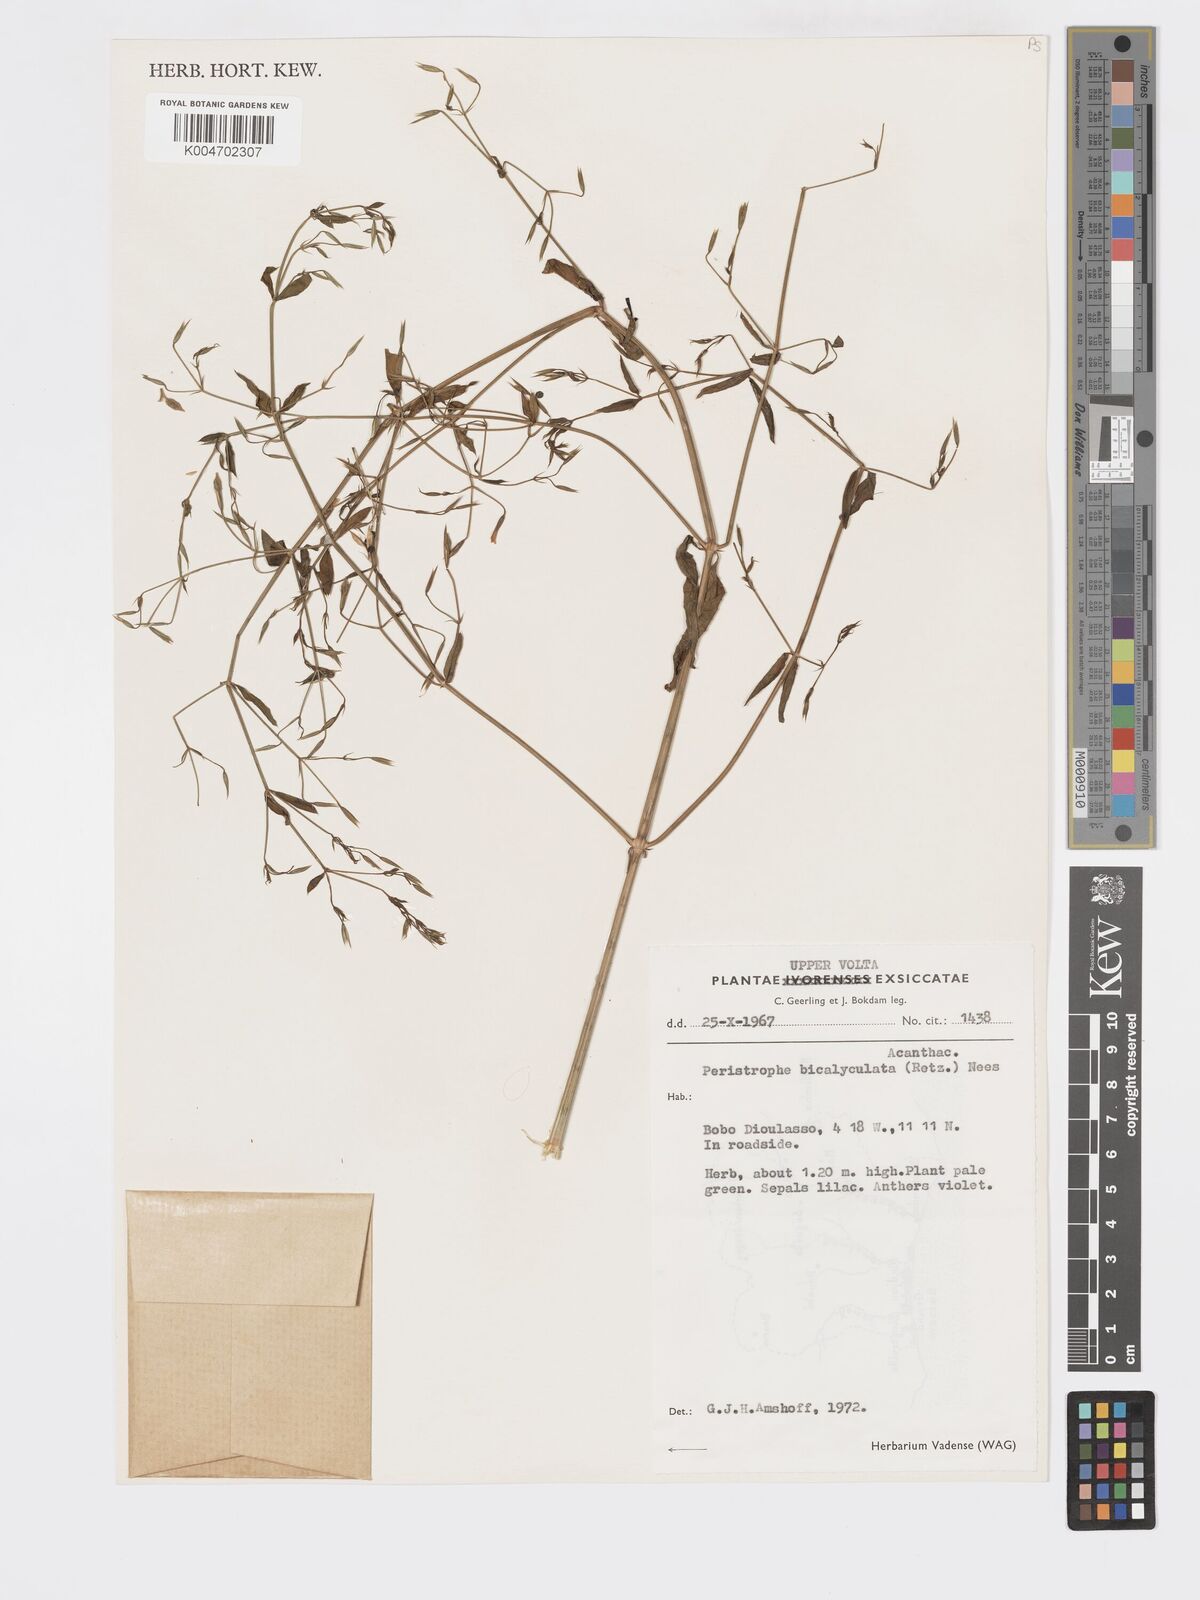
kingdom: Plantae
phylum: Tracheophyta
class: Magnoliopsida
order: Lamiales
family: Acanthaceae
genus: Dicliptera
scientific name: Dicliptera paniculata
